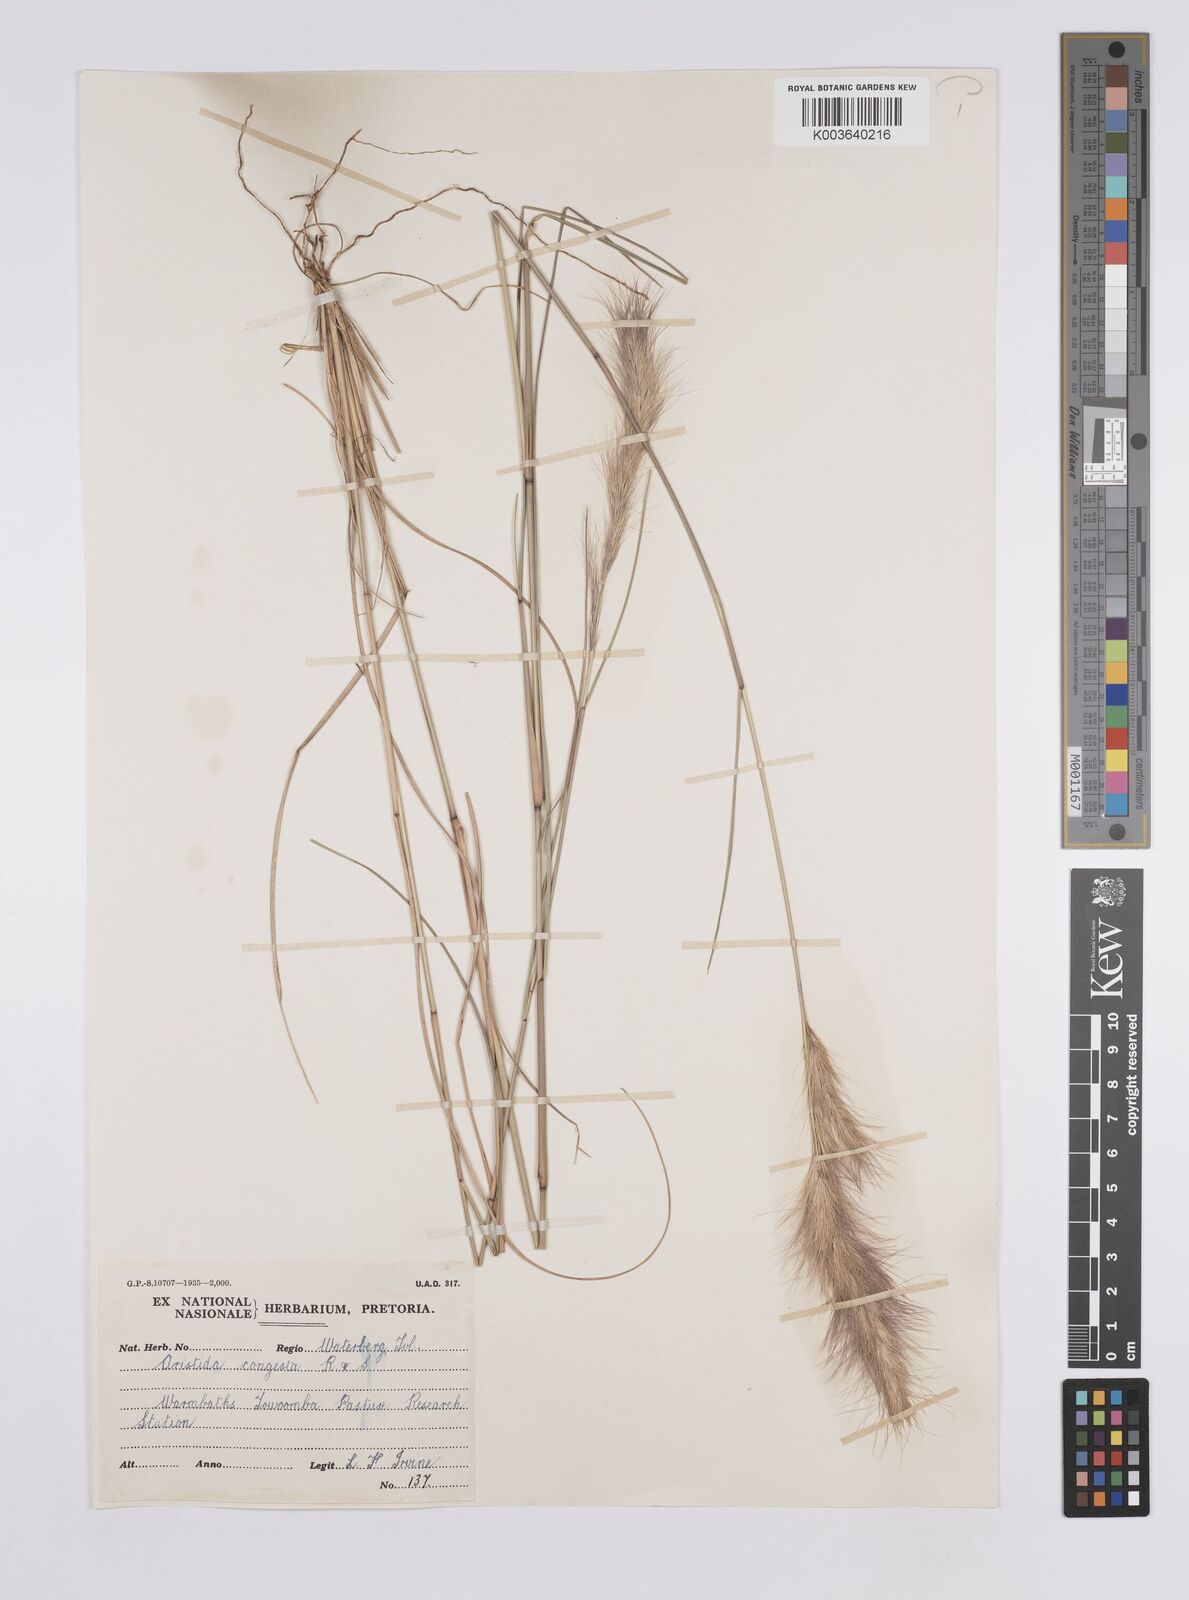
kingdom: Plantae
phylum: Tracheophyta
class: Liliopsida
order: Poales
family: Poaceae
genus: Aristida
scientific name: Aristida congesta
